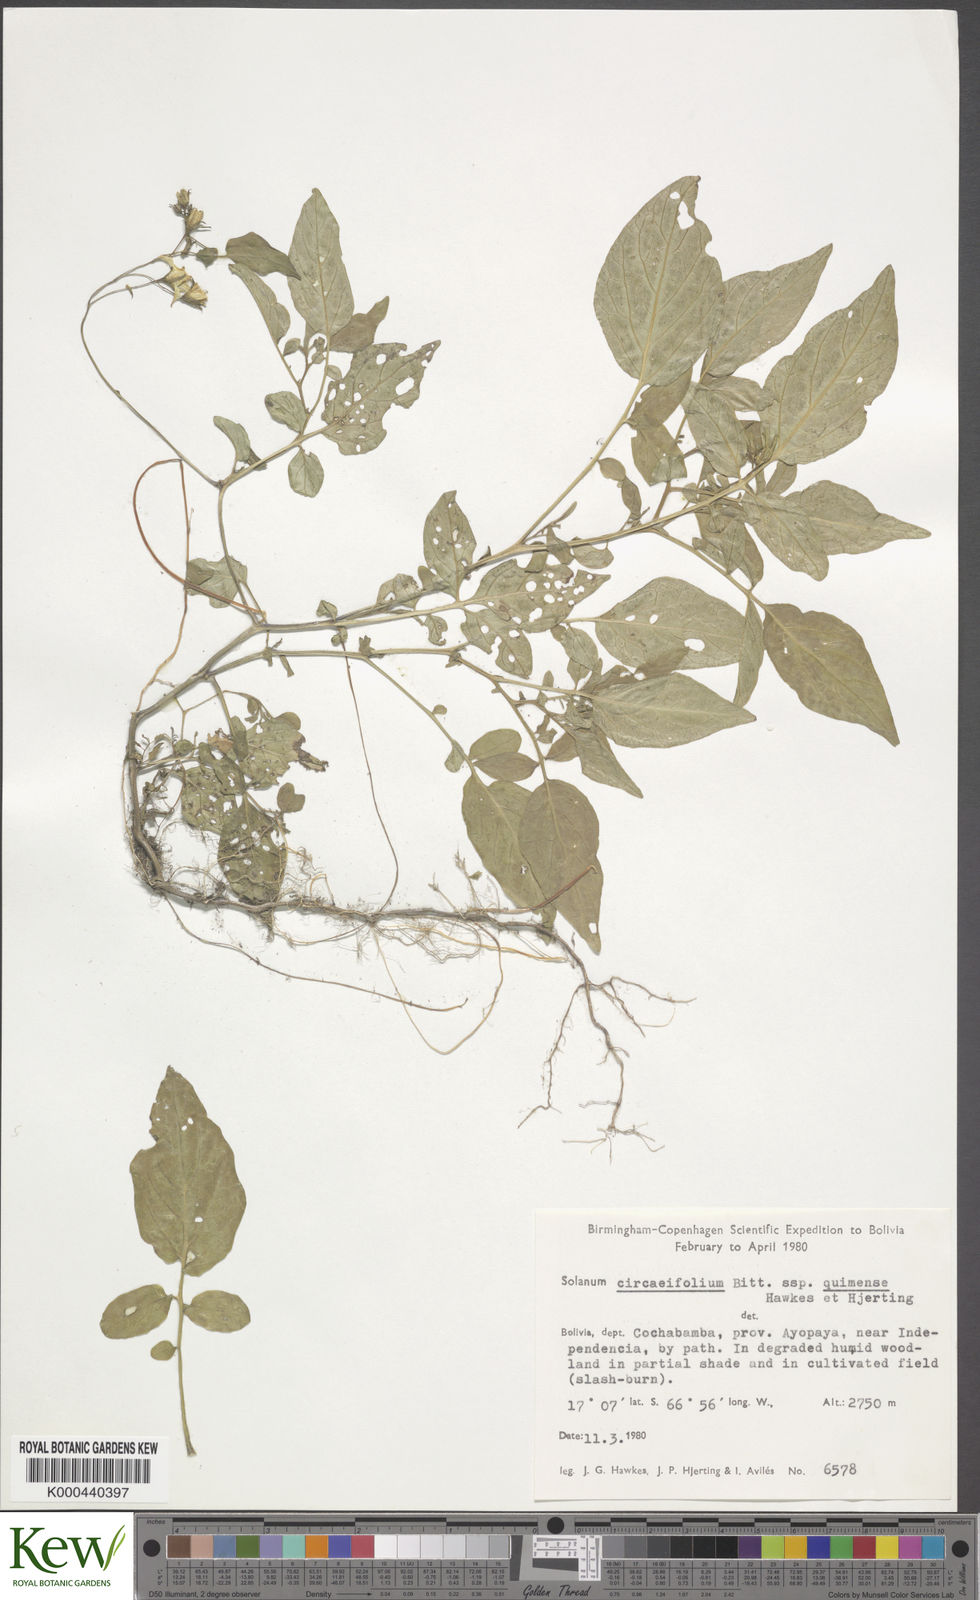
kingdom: Plantae
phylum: Tracheophyta
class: Magnoliopsida
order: Solanales
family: Solanaceae
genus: Solanum
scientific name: Solanum stipuloideum
